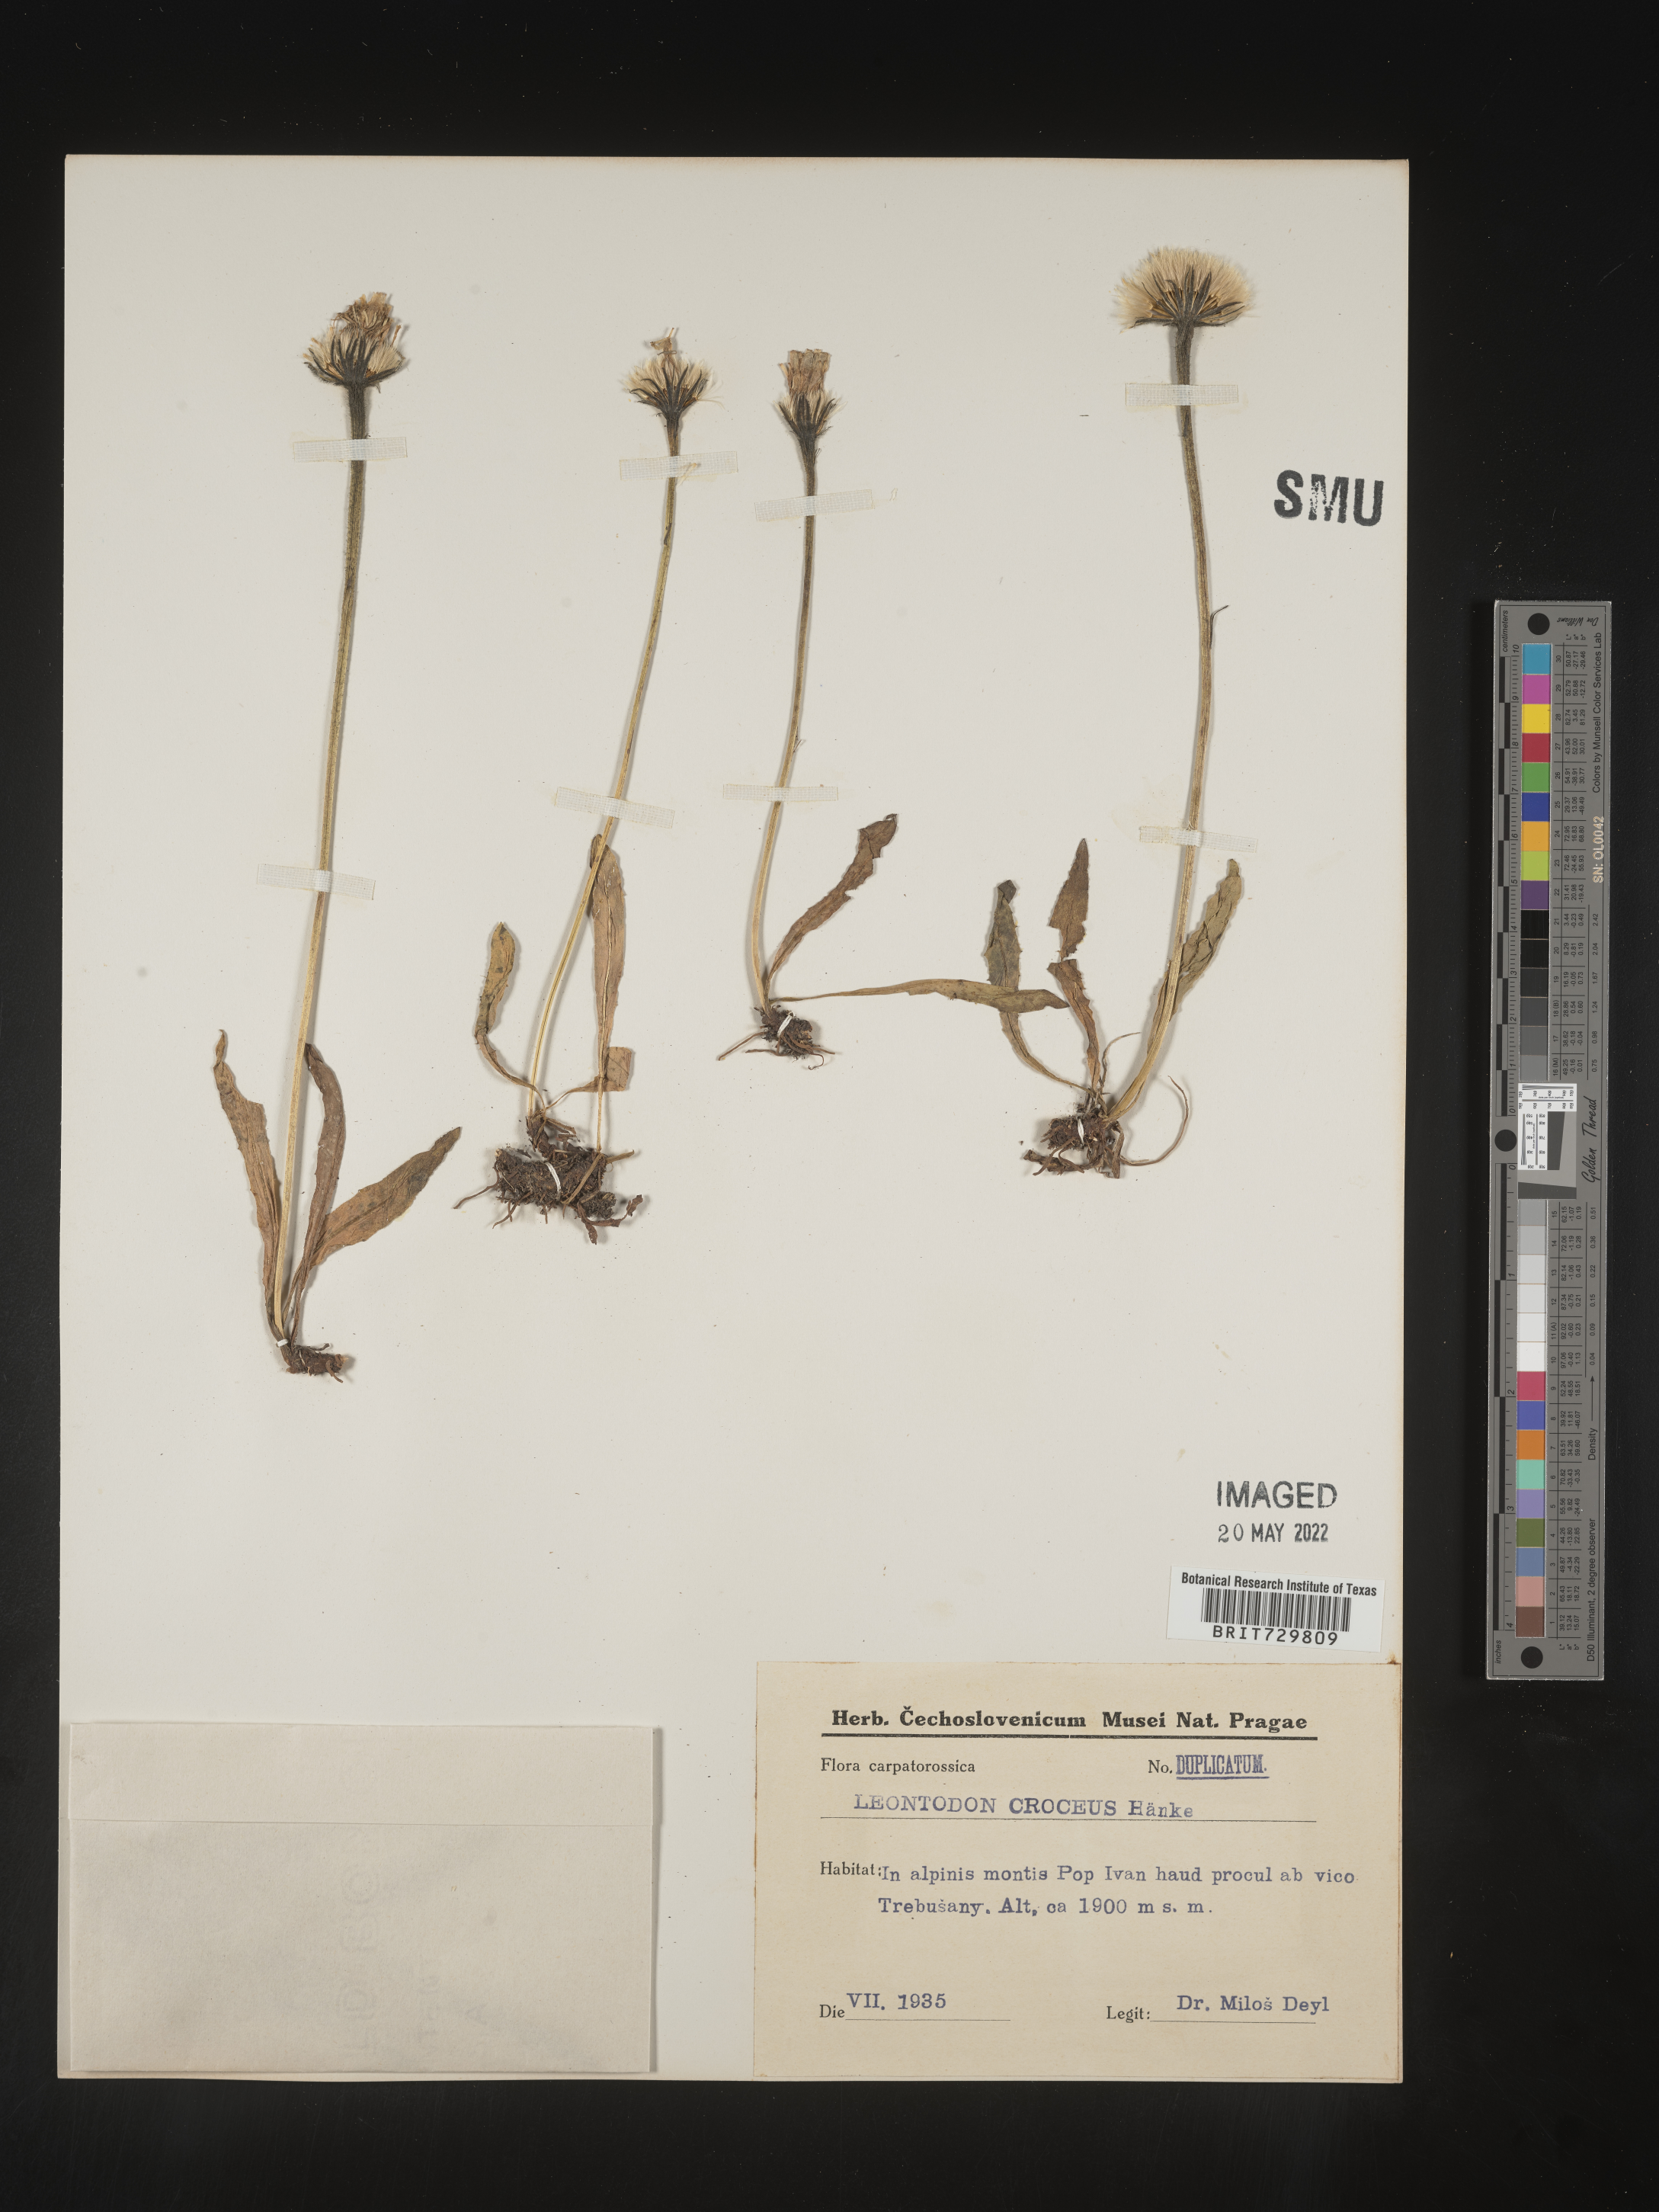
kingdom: Plantae
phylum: Tracheophyta
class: Magnoliopsida
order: Asterales
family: Asteraceae
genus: Leontodon
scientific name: Leontodon
